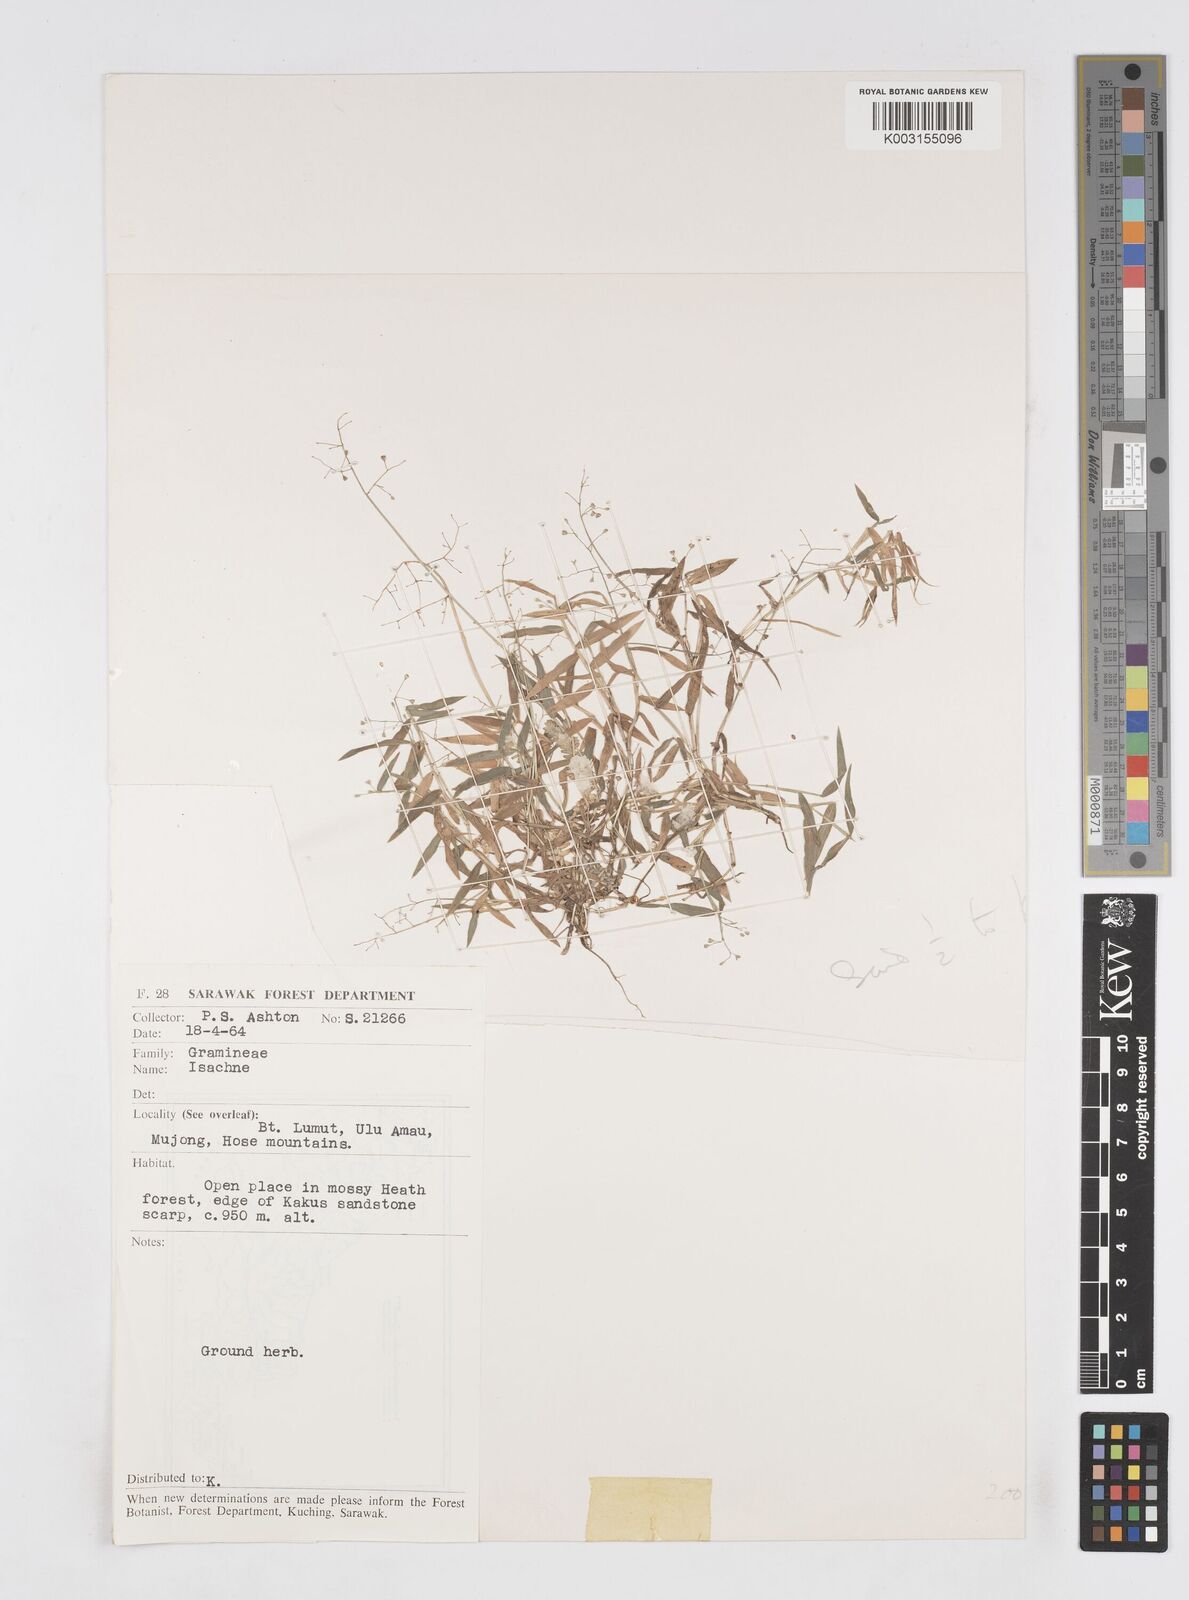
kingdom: Plantae
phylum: Tracheophyta
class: Liliopsida
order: Poales
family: Poaceae
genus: Isachne
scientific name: Isachne
